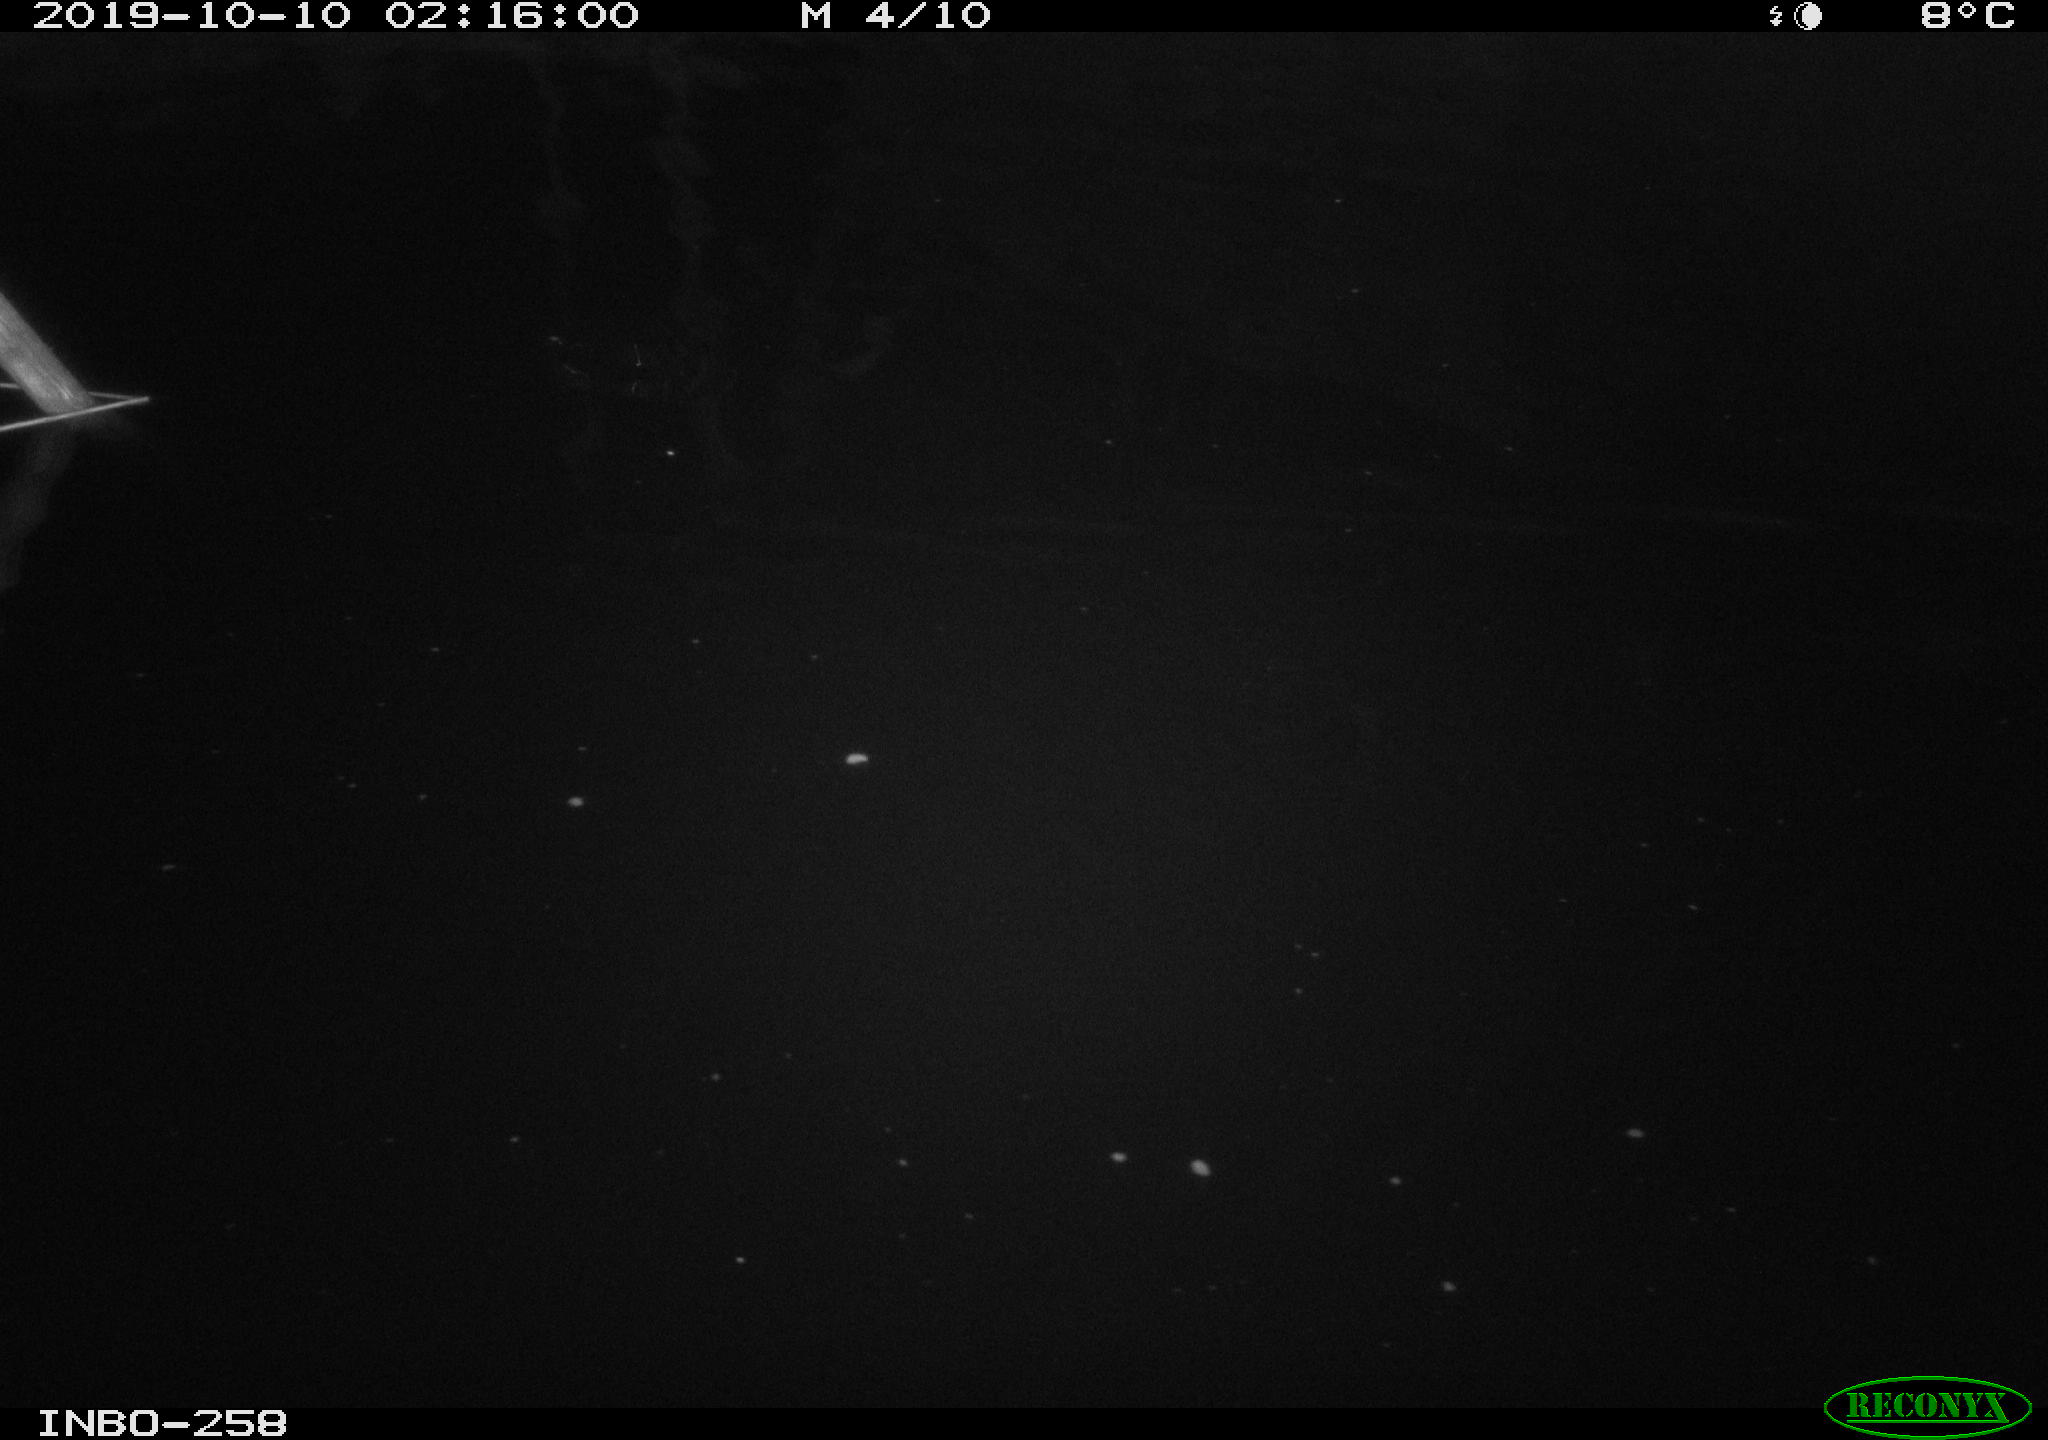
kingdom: Animalia
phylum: Chordata
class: Aves
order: Anseriformes
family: Anatidae
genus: Anas
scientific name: Anas platyrhynchos
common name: Mallard
